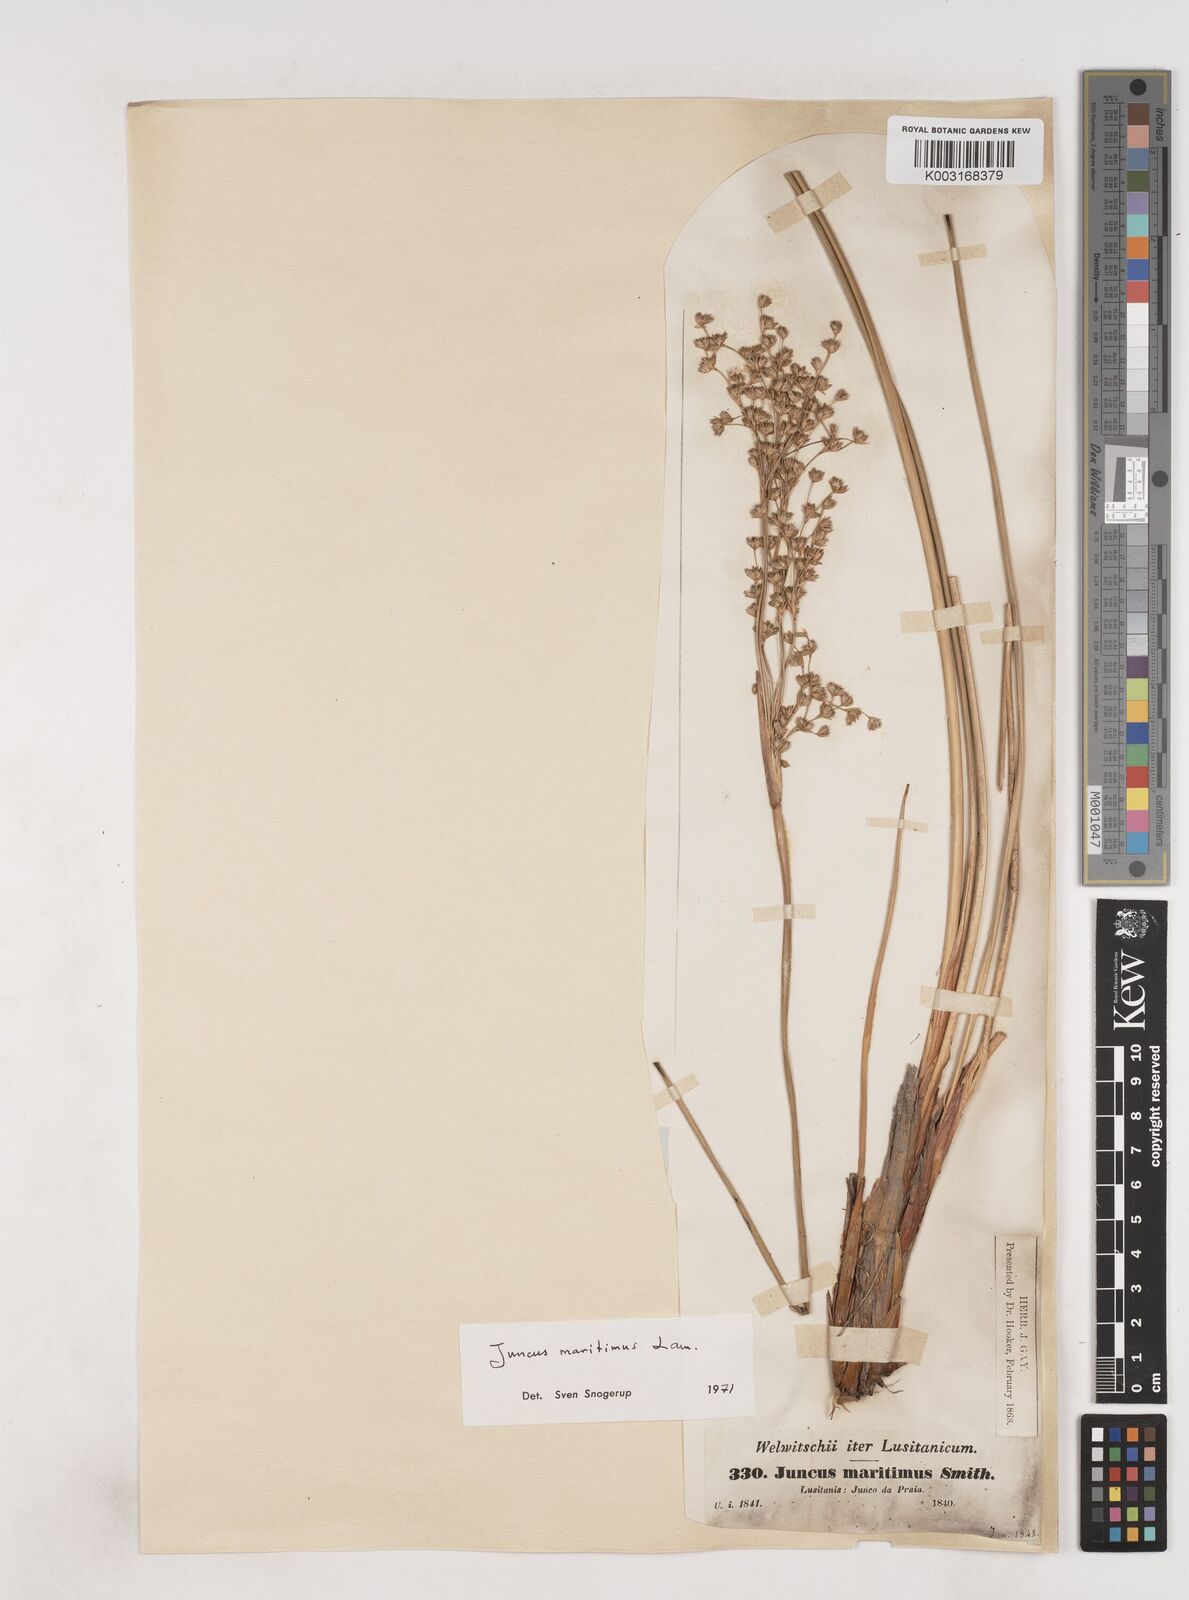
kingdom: Plantae
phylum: Tracheophyta
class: Liliopsida
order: Poales
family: Juncaceae
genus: Luzula
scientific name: Luzula sylvatica
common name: Great wood-rush
